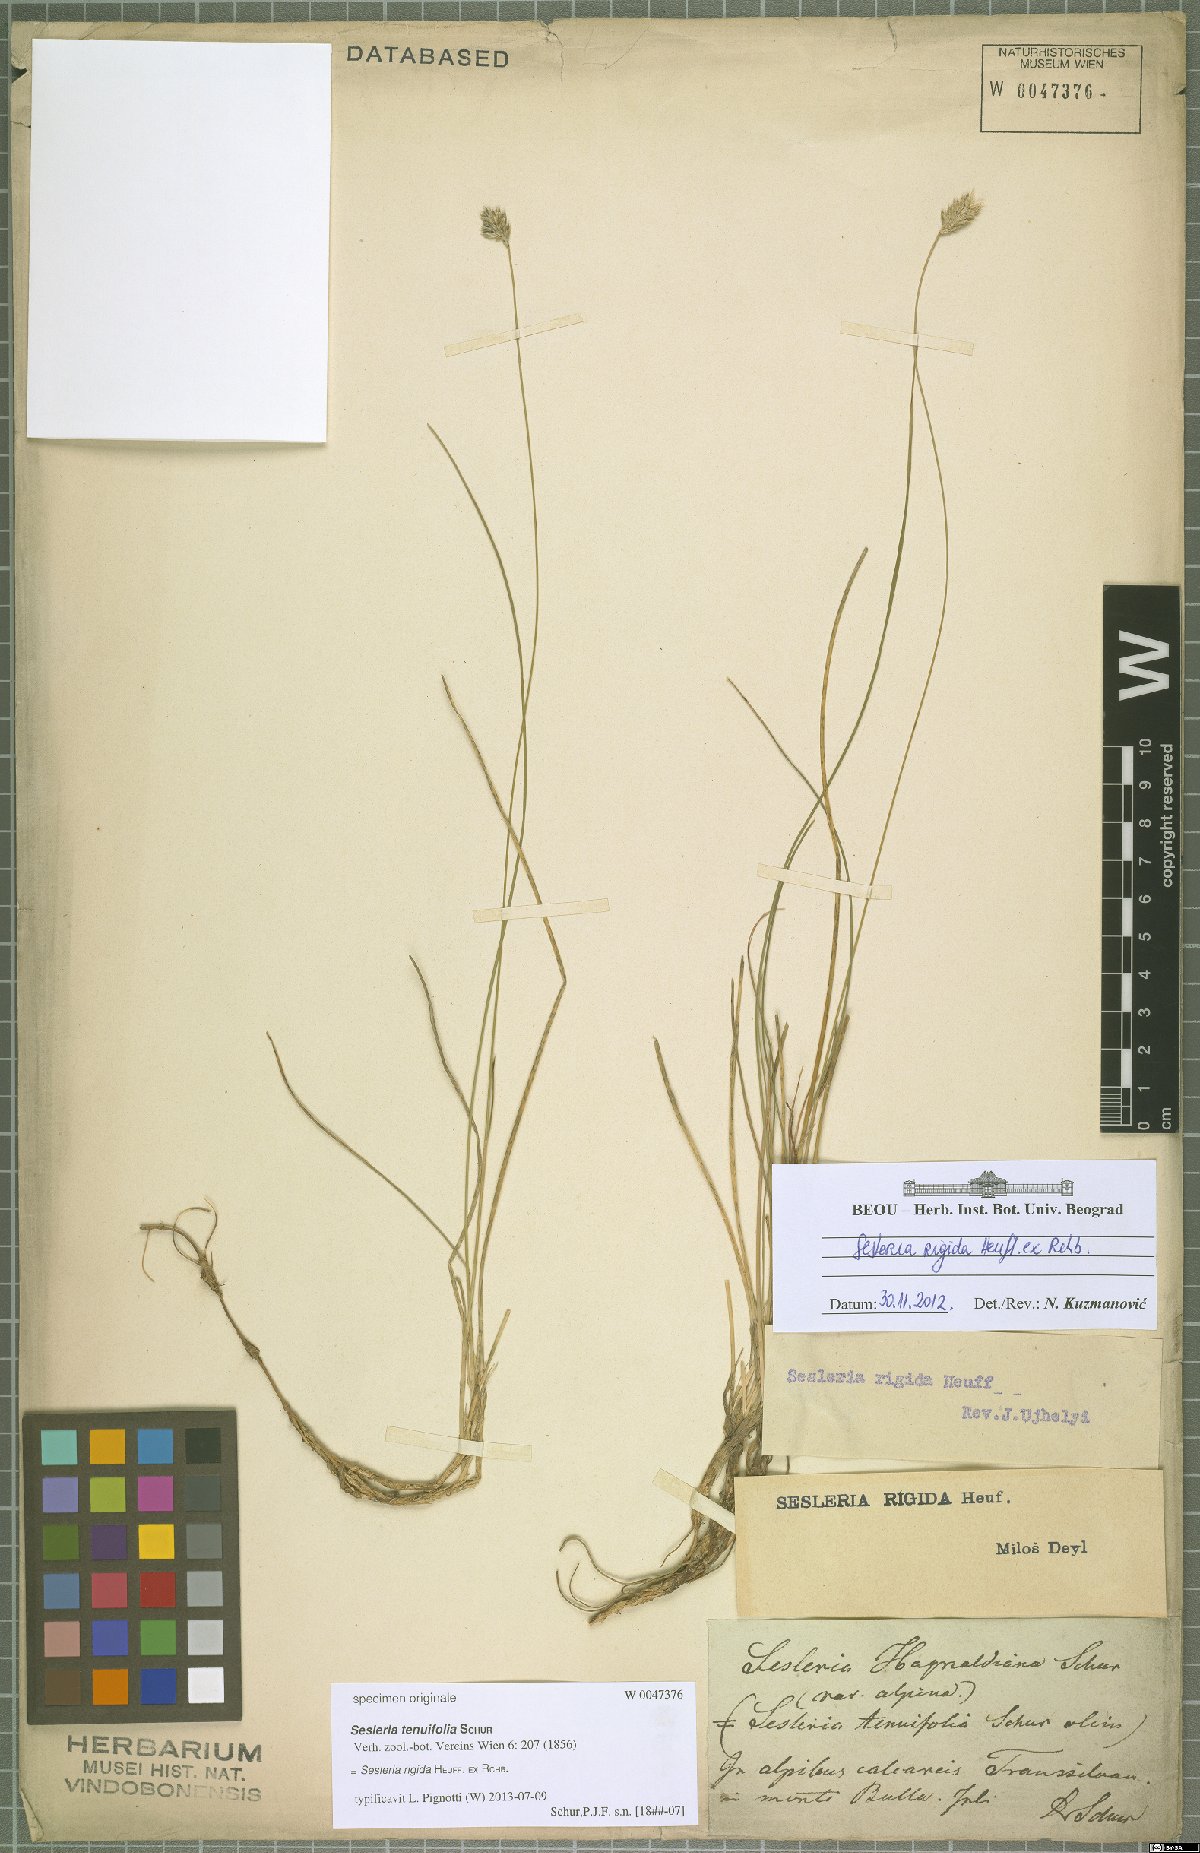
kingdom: Plantae
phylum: Tracheophyta
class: Liliopsida
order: Poales
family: Poaceae
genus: Sesleria
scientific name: Sesleria rigida
